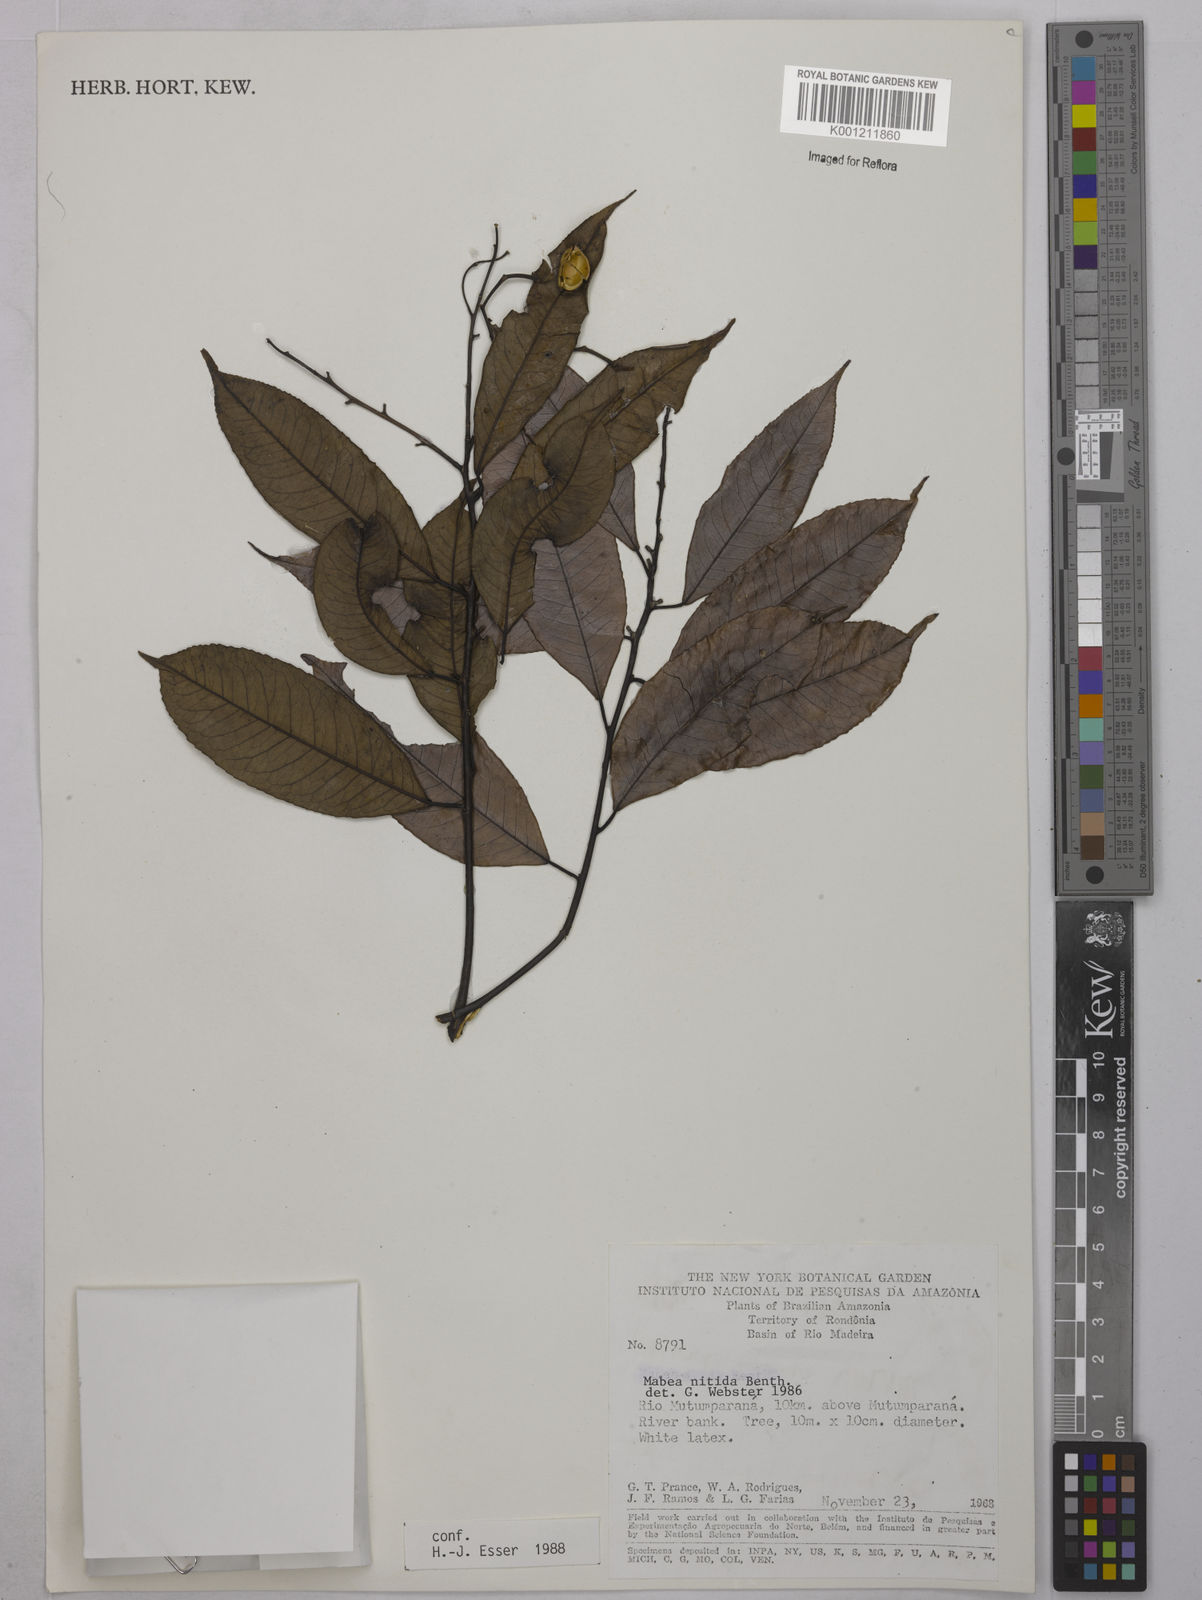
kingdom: Plantae
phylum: Tracheophyta
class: Magnoliopsida
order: Malpighiales
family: Euphorbiaceae
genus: Mabea
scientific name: Mabea nitida
